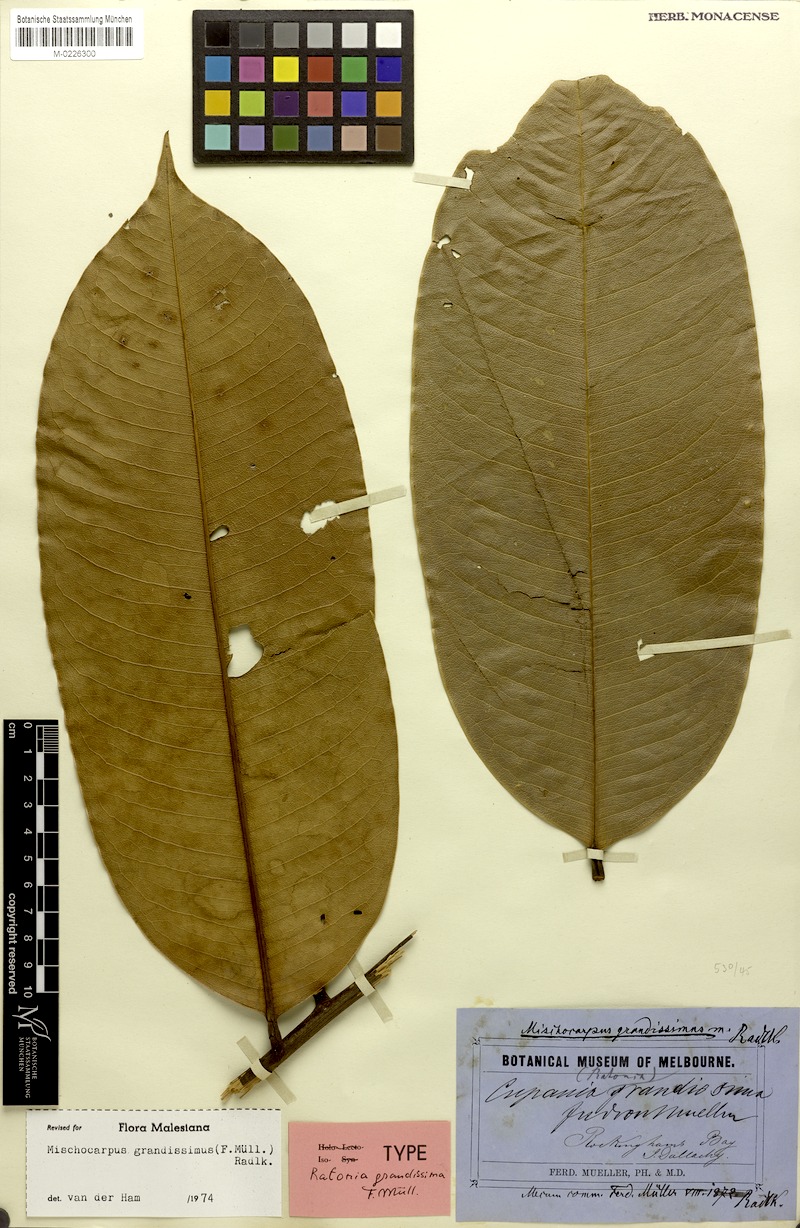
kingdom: Plantae
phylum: Tracheophyta
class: Magnoliopsida
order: Sapindales
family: Sapindaceae
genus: Mischocarpus
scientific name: Mischocarpus grandissimus
